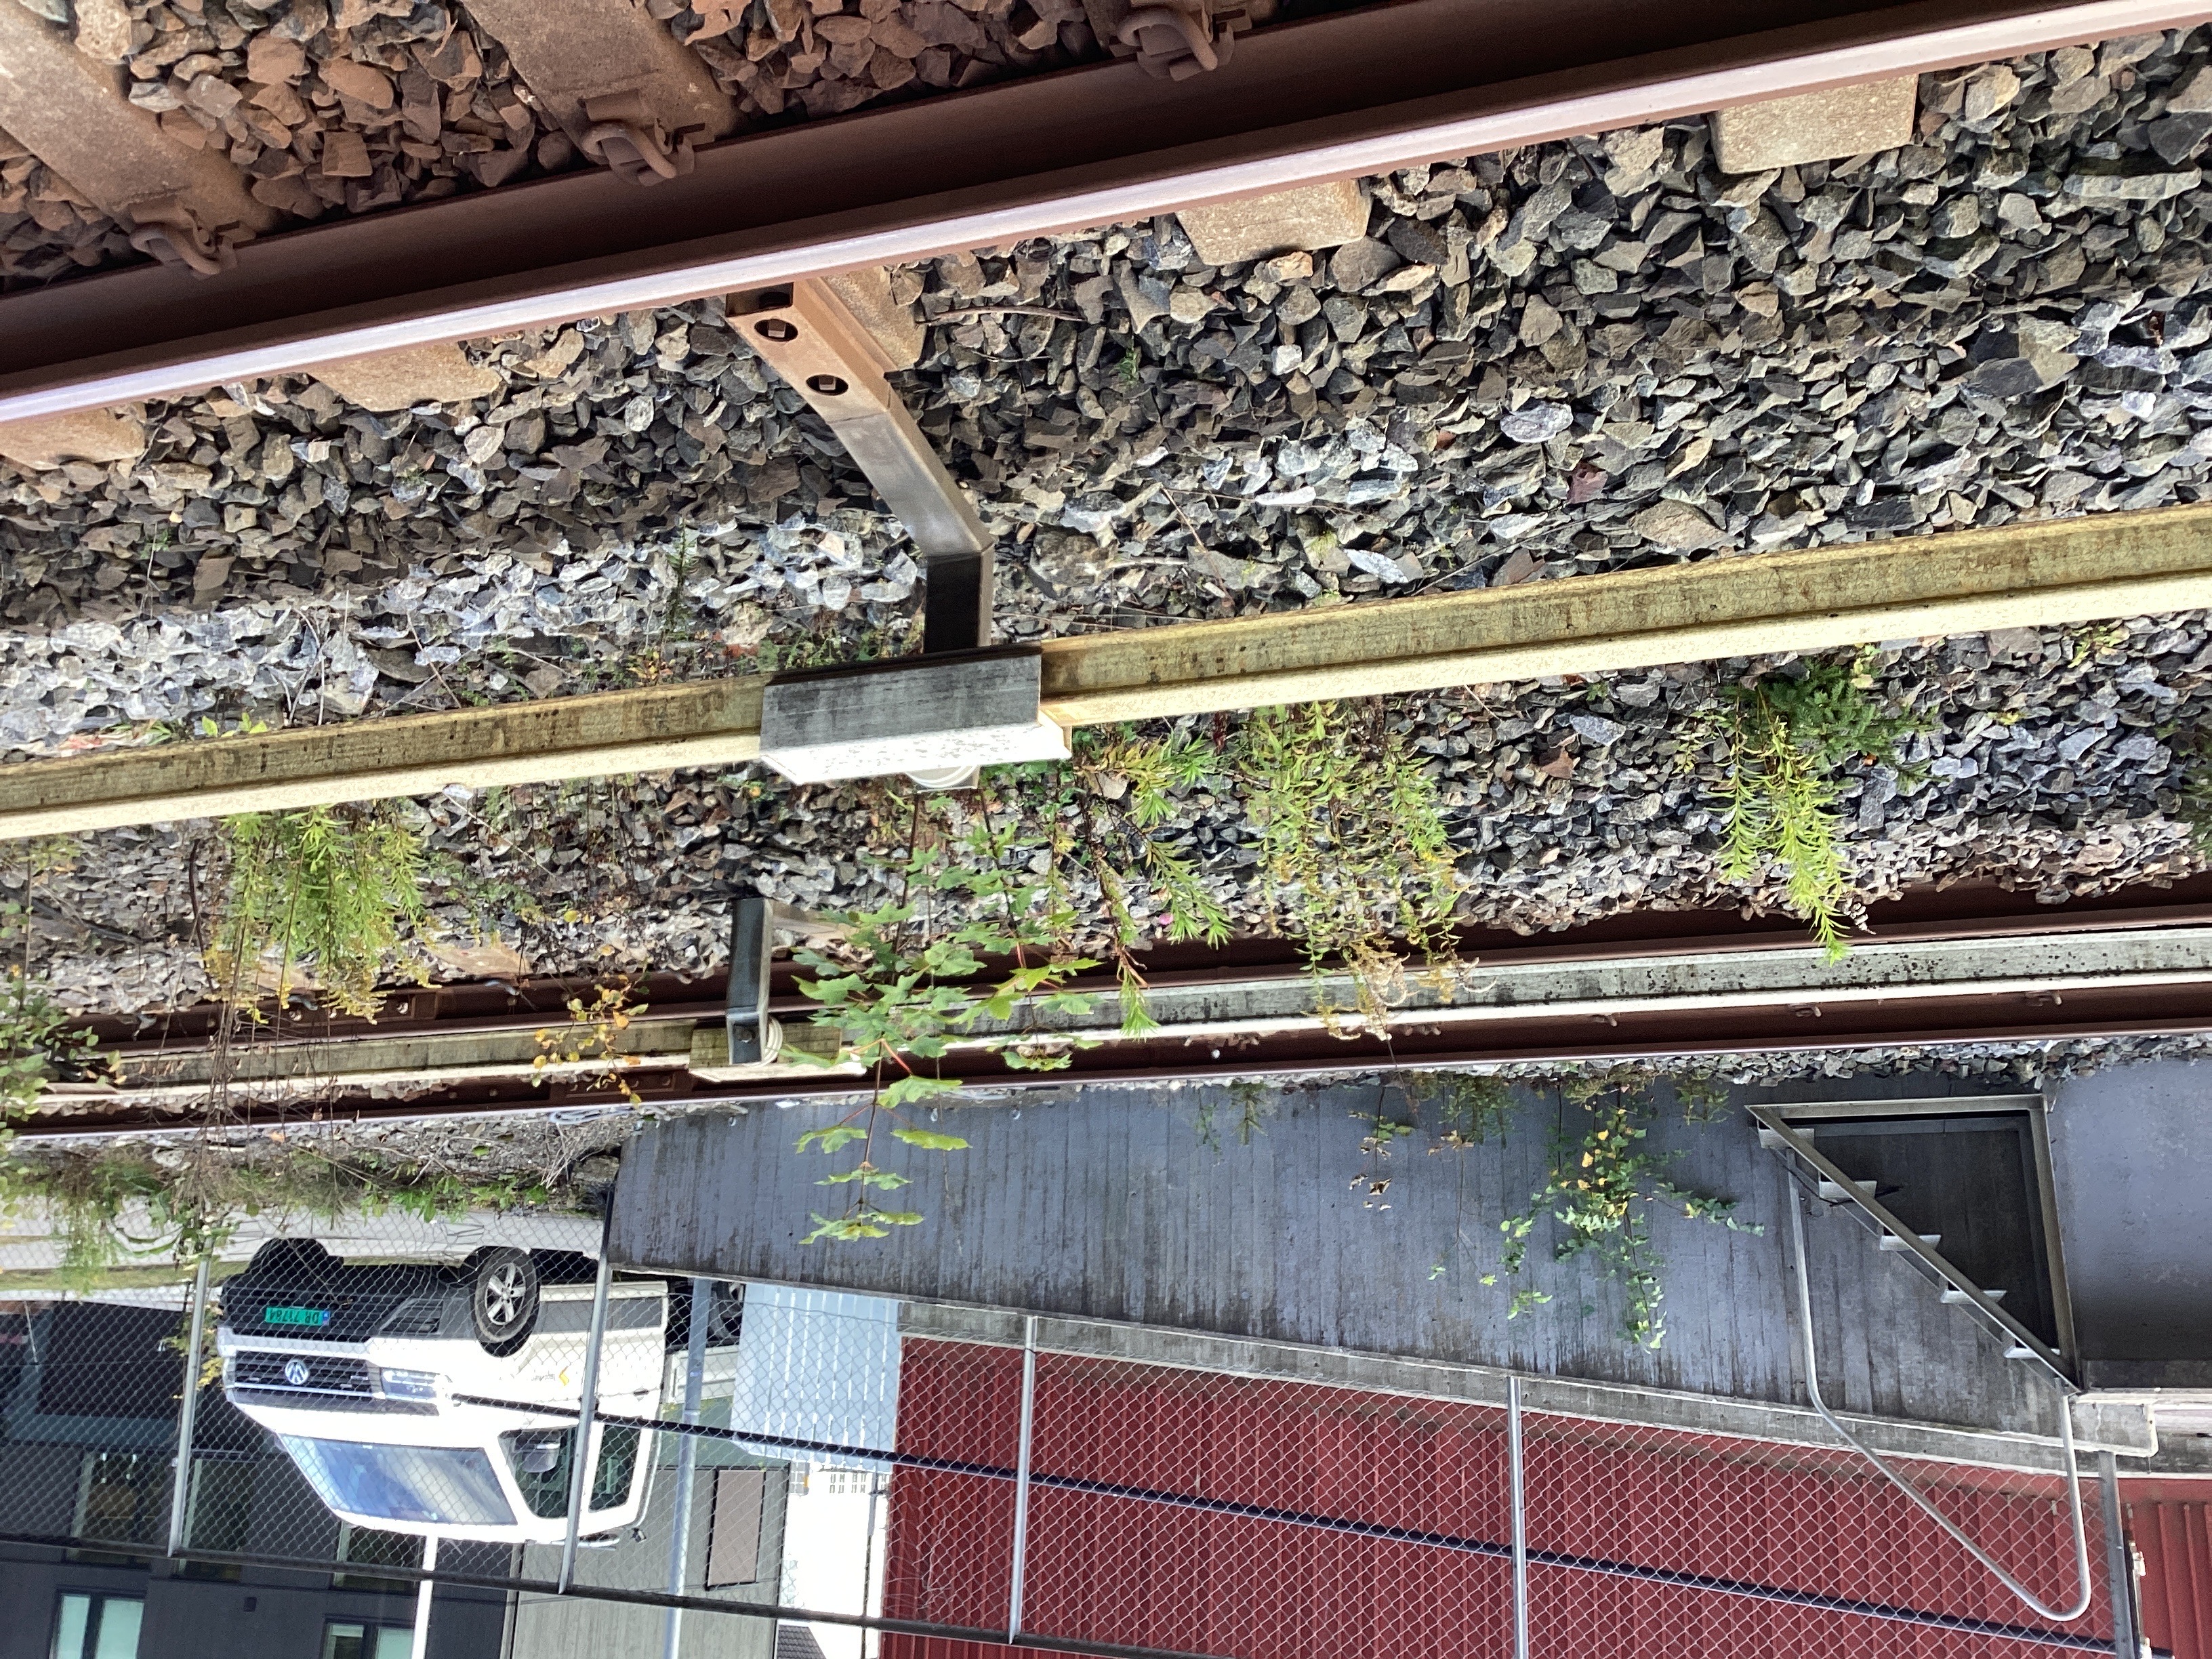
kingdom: Plantae
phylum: Tracheophyta
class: Magnoliopsida
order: Asterales
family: Asteraceae
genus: Solidago
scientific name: Solidago canadensis
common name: kanadagullris
